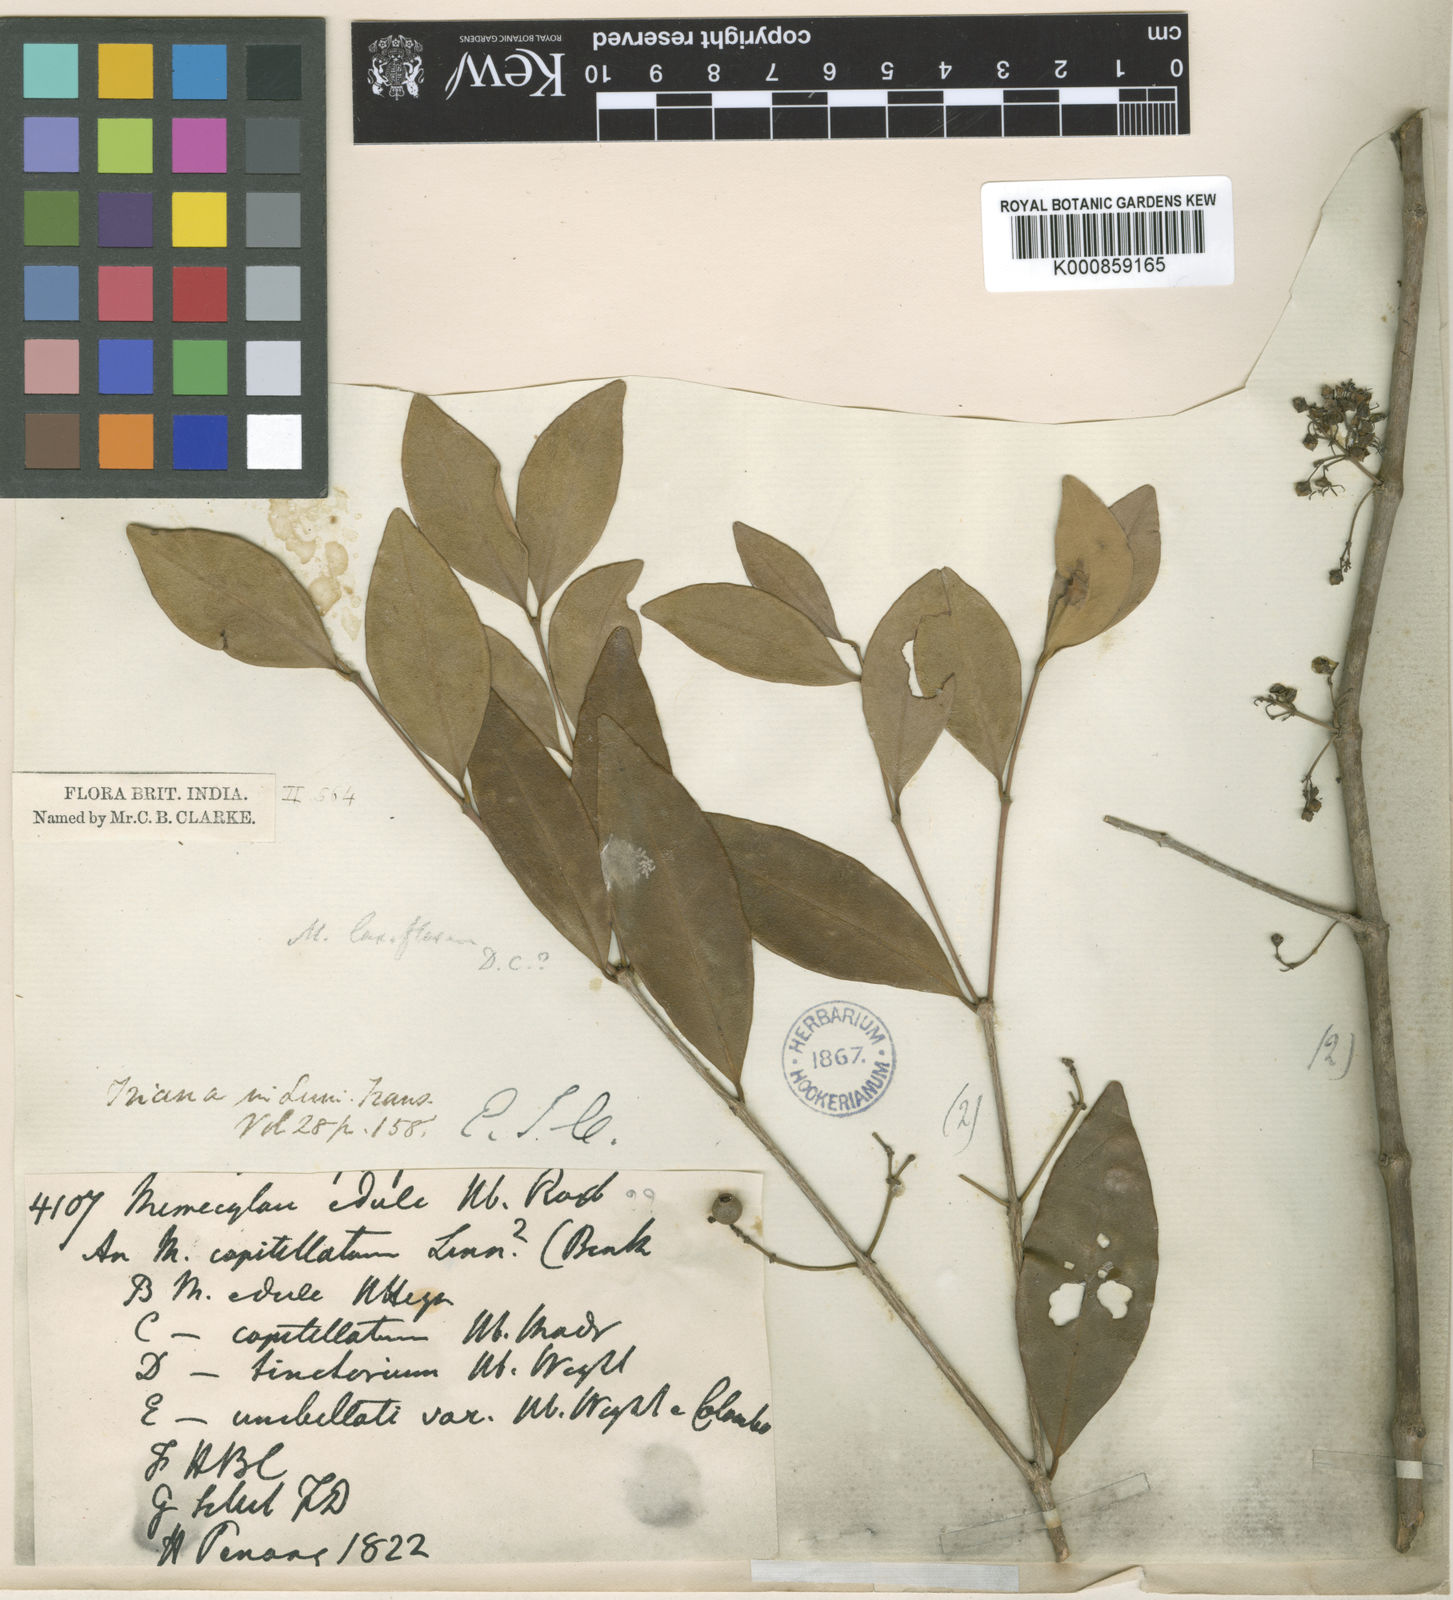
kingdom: Plantae
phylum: Tracheophyta
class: Magnoliopsida
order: Myrtales
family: Melastomataceae
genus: Memecylon
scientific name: Memecylon edule
